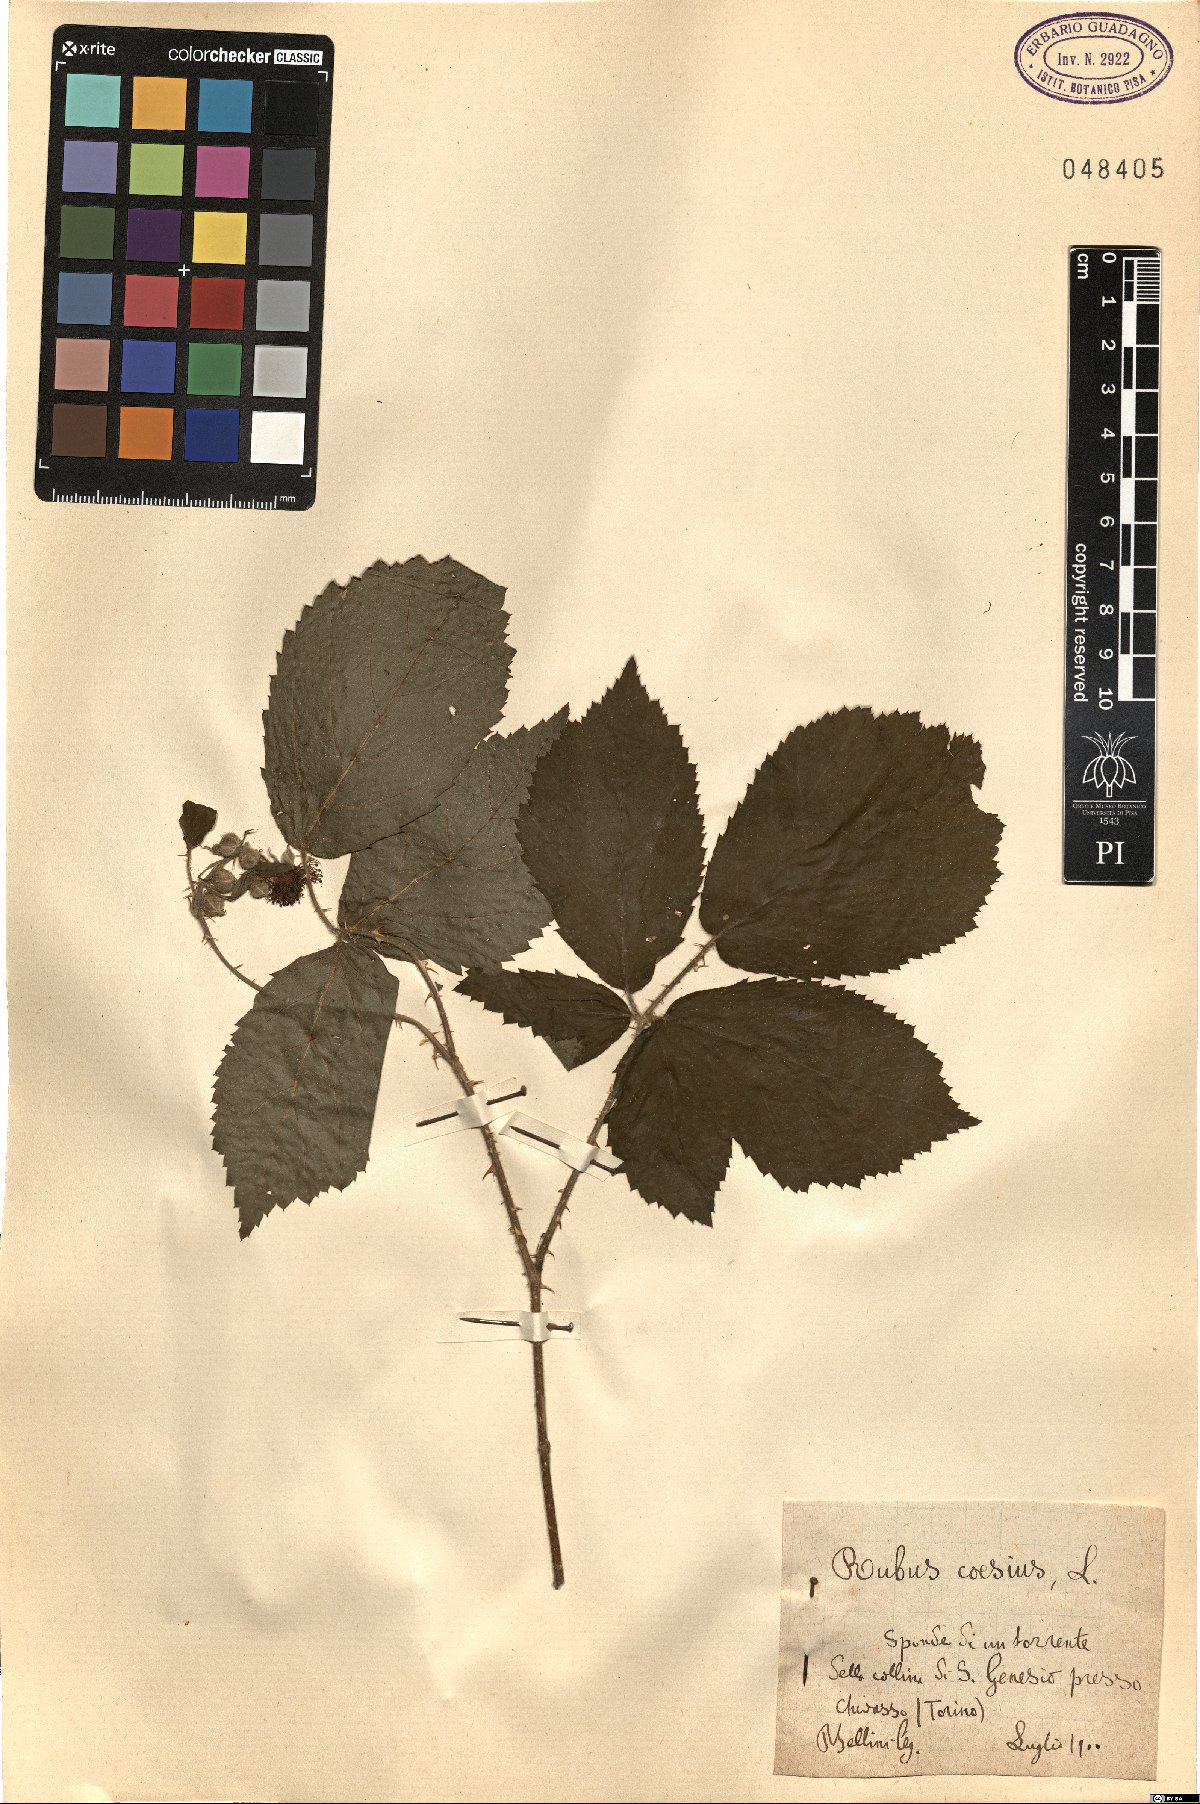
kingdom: Plantae
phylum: Tracheophyta
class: Magnoliopsida
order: Rosales
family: Rosaceae
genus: Rubus
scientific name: Rubus caesius
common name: Dewberry
